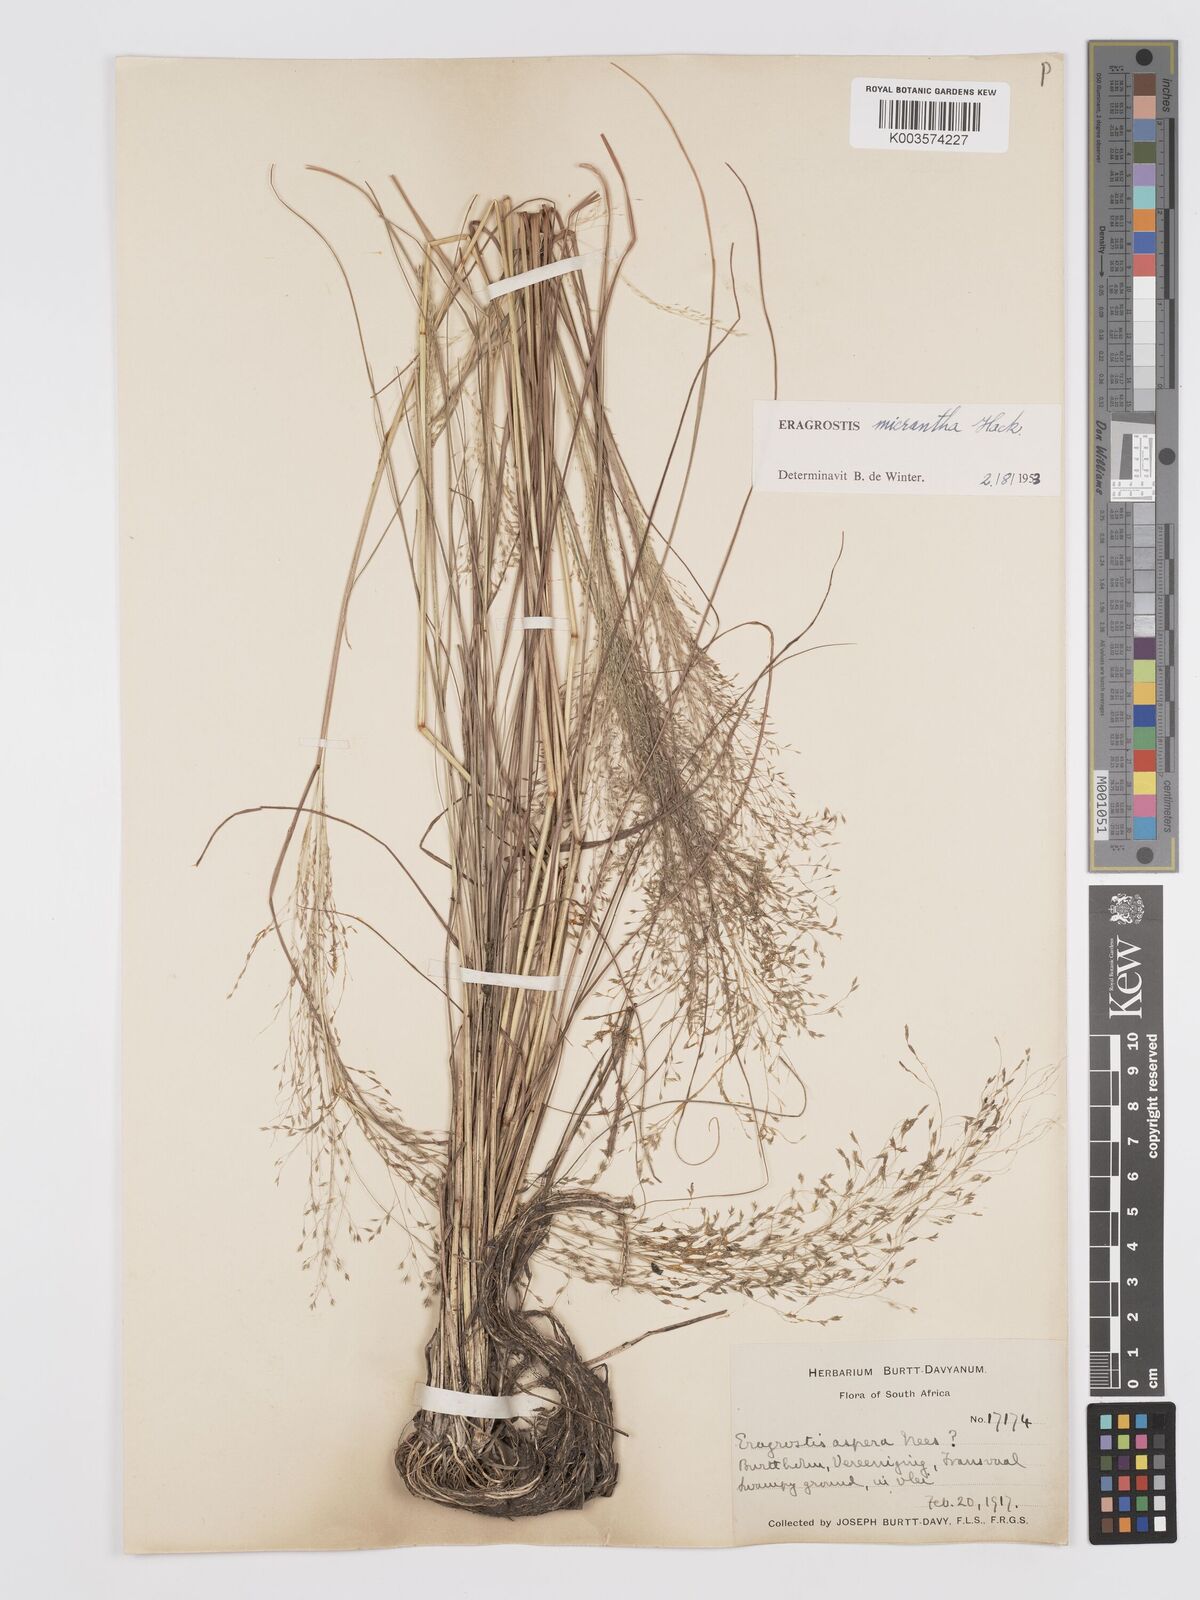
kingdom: Plantae
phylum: Tracheophyta
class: Liliopsida
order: Poales
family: Poaceae
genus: Eragrostis
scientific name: Eragrostis micrantha
